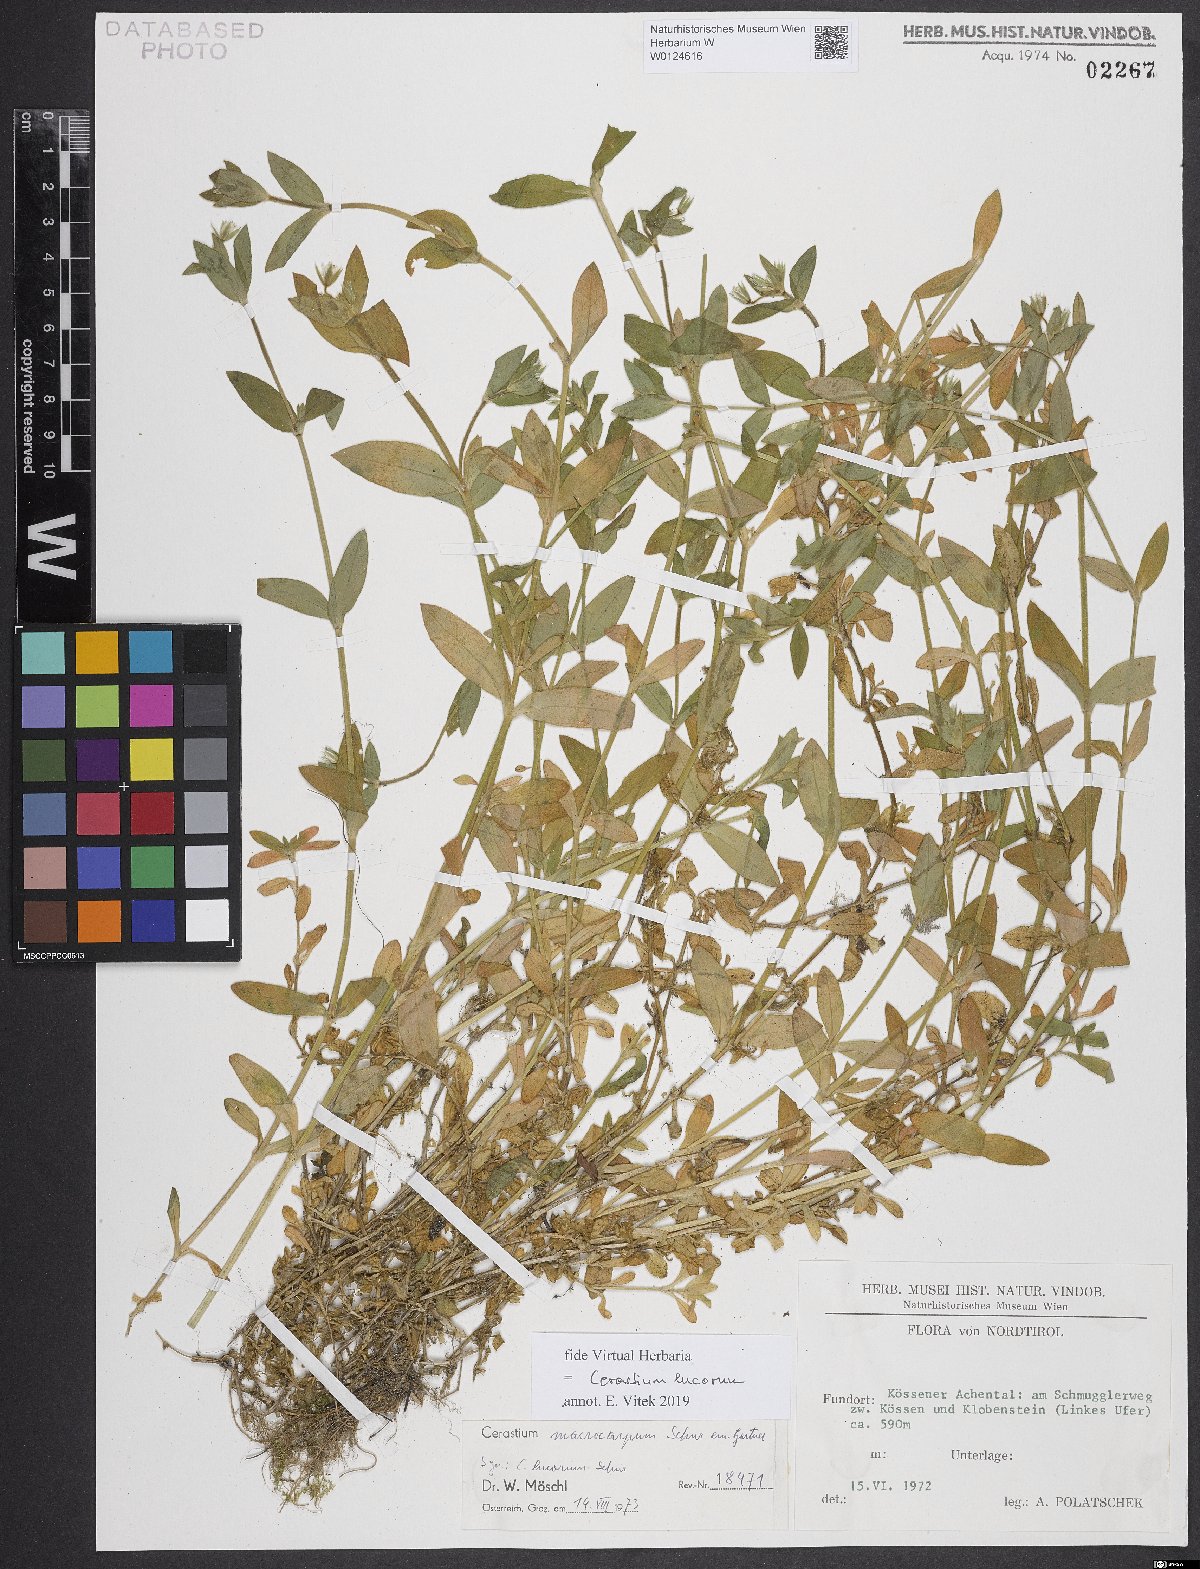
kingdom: Plantae
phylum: Tracheophyta
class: Magnoliopsida
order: Caryophyllales
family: Caryophyllaceae
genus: Cerastium
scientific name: Cerastium lucorum
